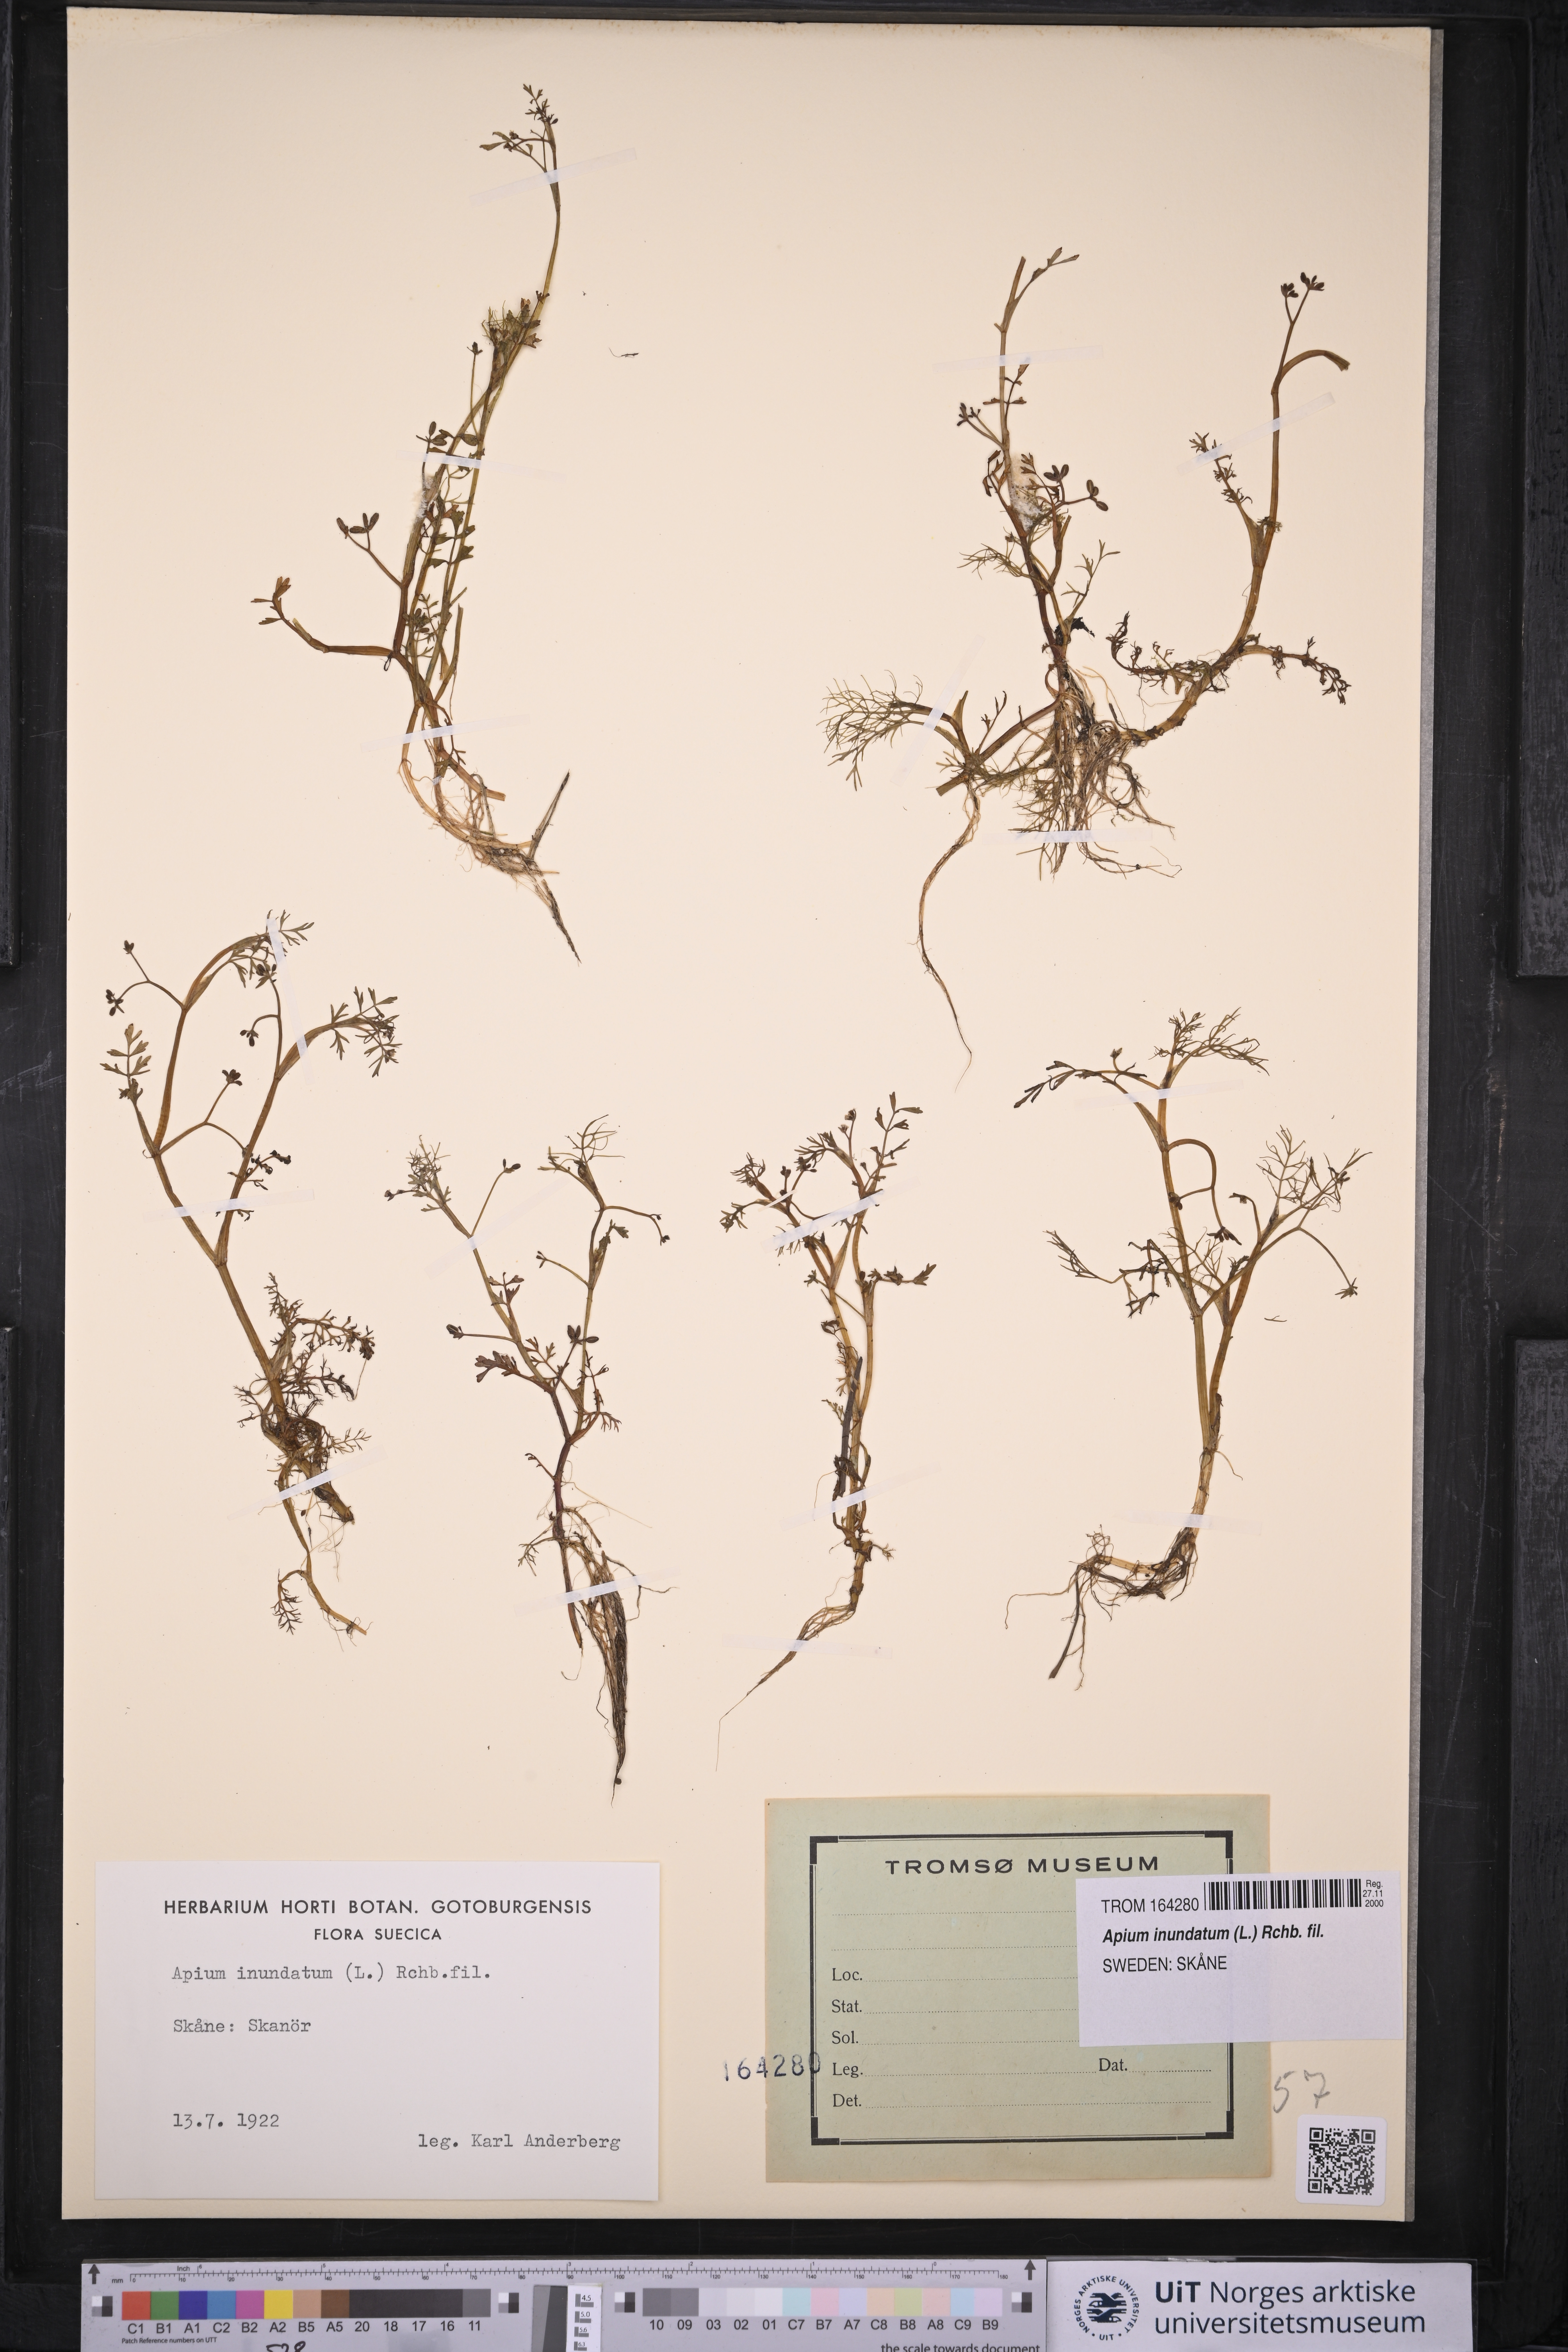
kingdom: Plantae
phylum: Tracheophyta
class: Magnoliopsida
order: Apiales
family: Apiaceae
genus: Helosciadium
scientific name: Helosciadium inundatum
